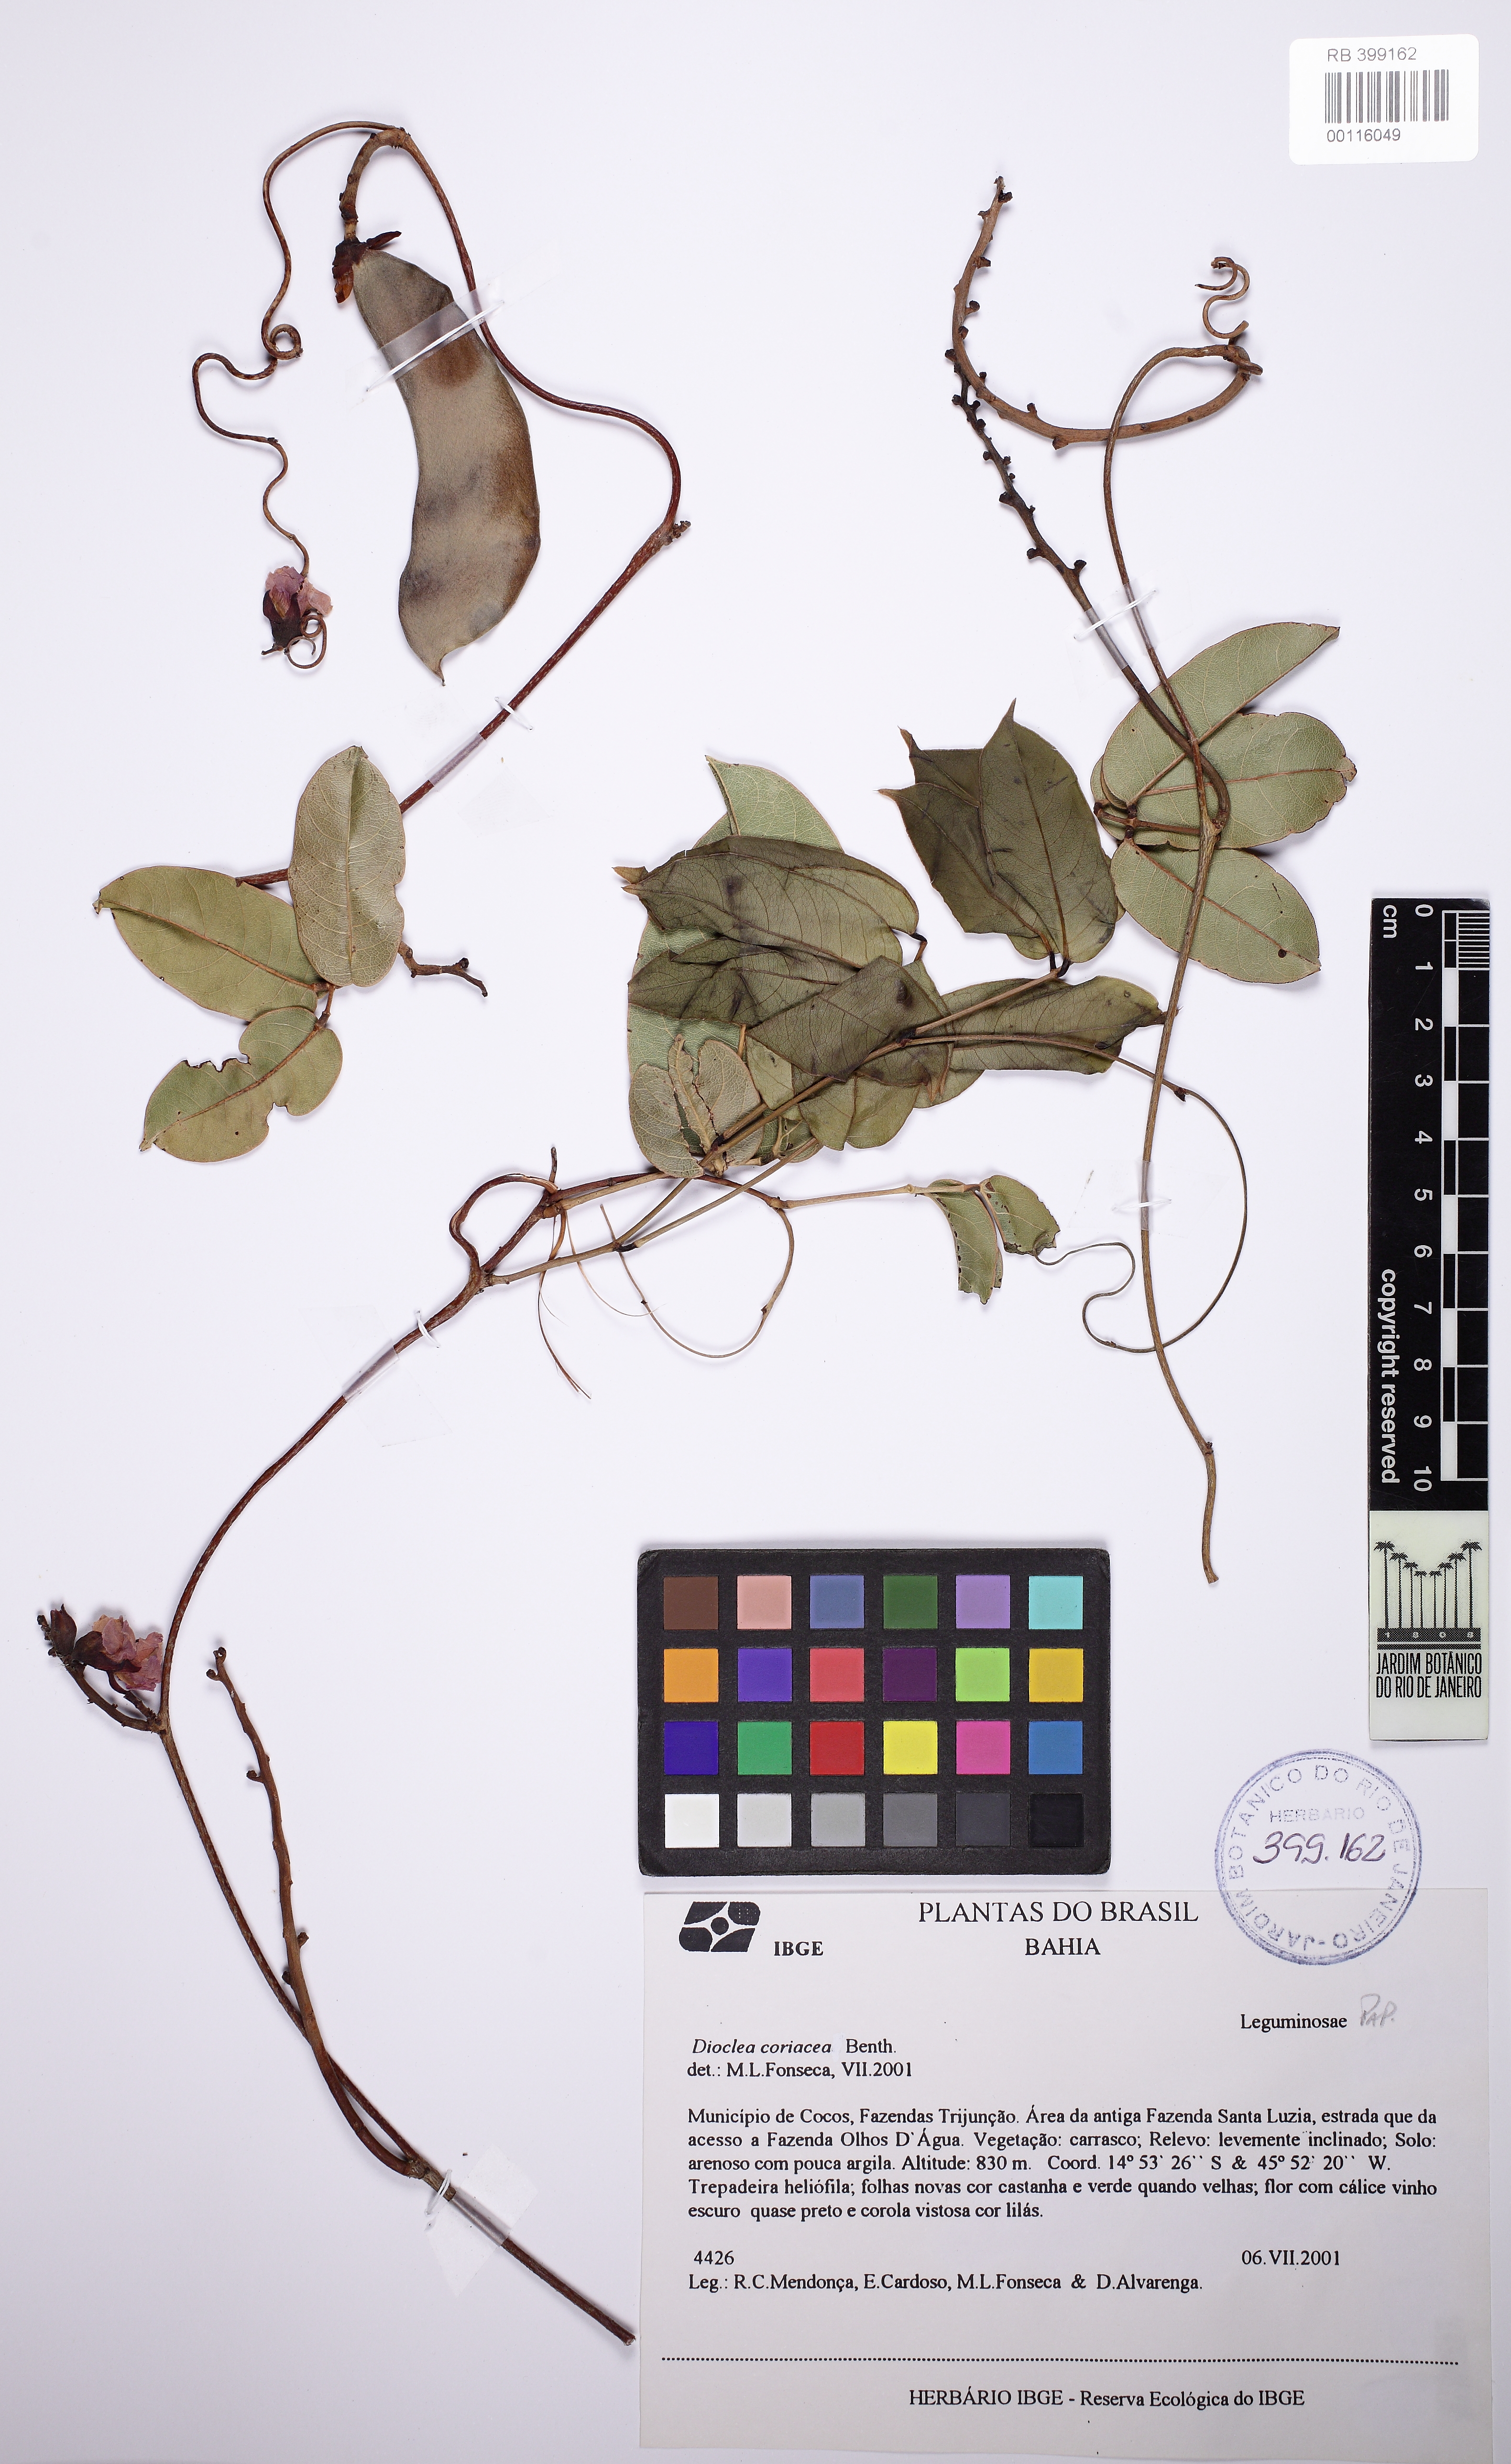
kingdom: Plantae
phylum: Tracheophyta
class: Magnoliopsida
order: Fabales
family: Fabaceae
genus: Macropsychanthus
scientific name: Macropsychanthus coriaceus
